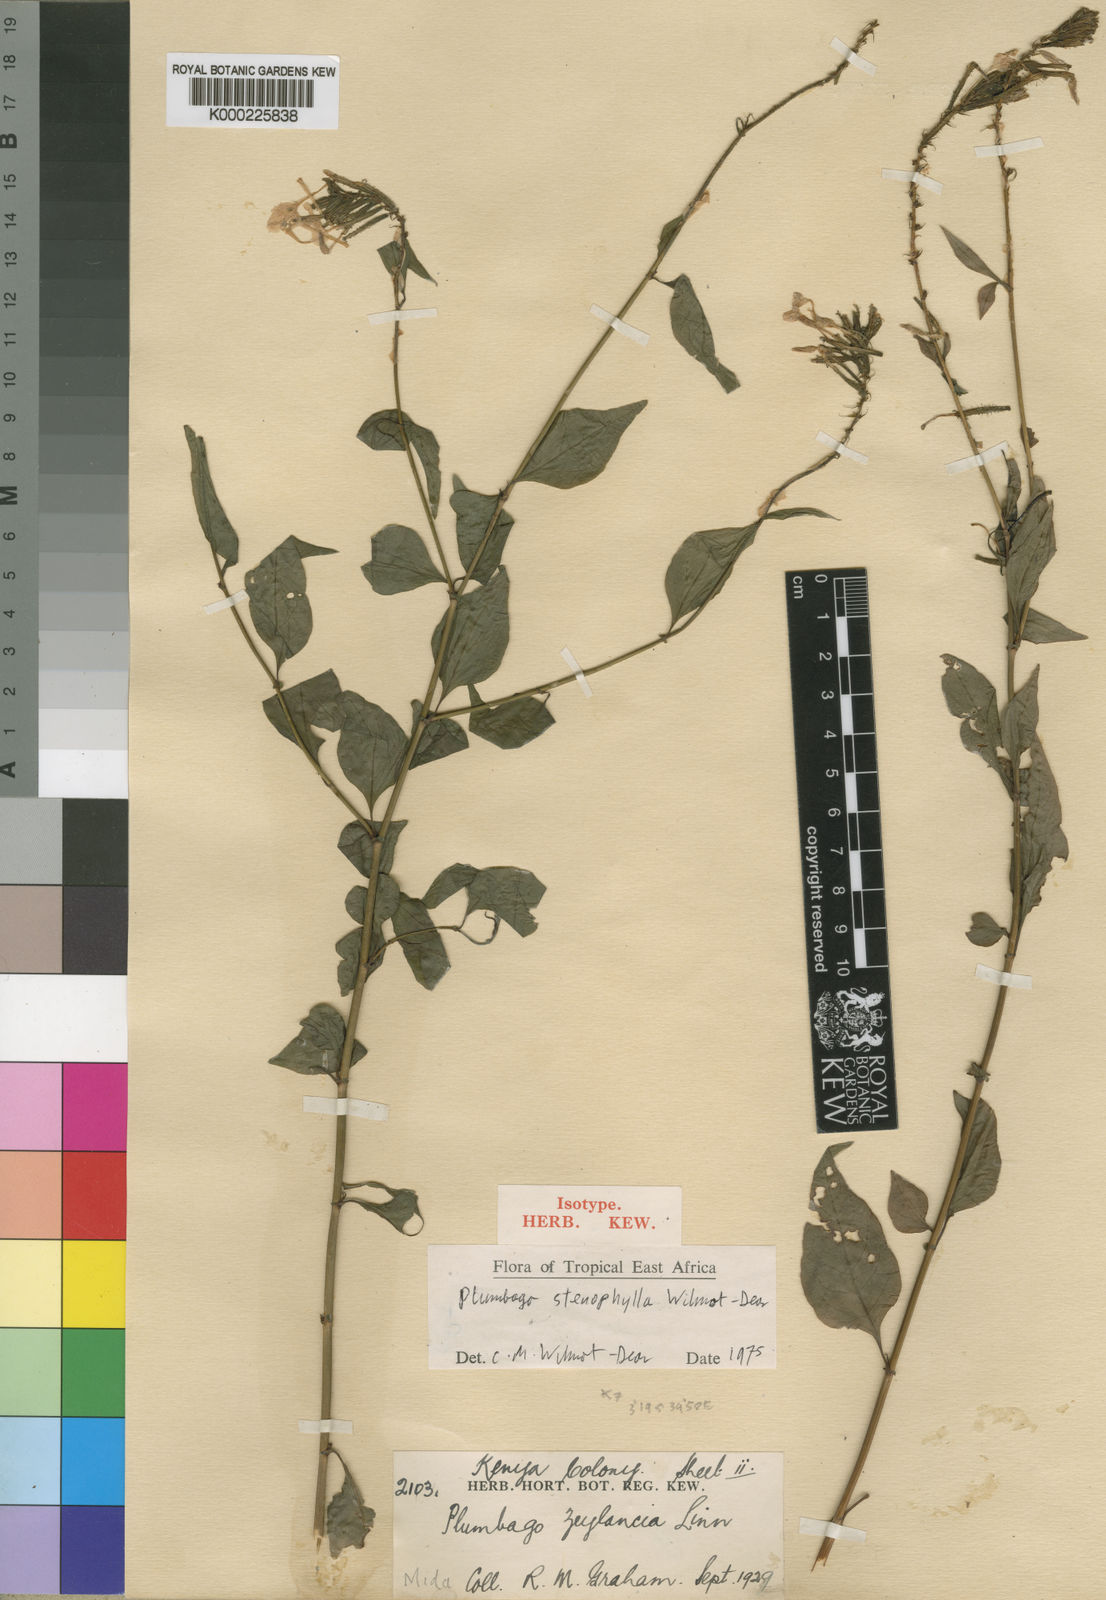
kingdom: Plantae
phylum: Tracheophyta
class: Magnoliopsida
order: Caryophyllales
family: Plumbaginaceae
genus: Plumbago
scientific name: Plumbago stenophylla
